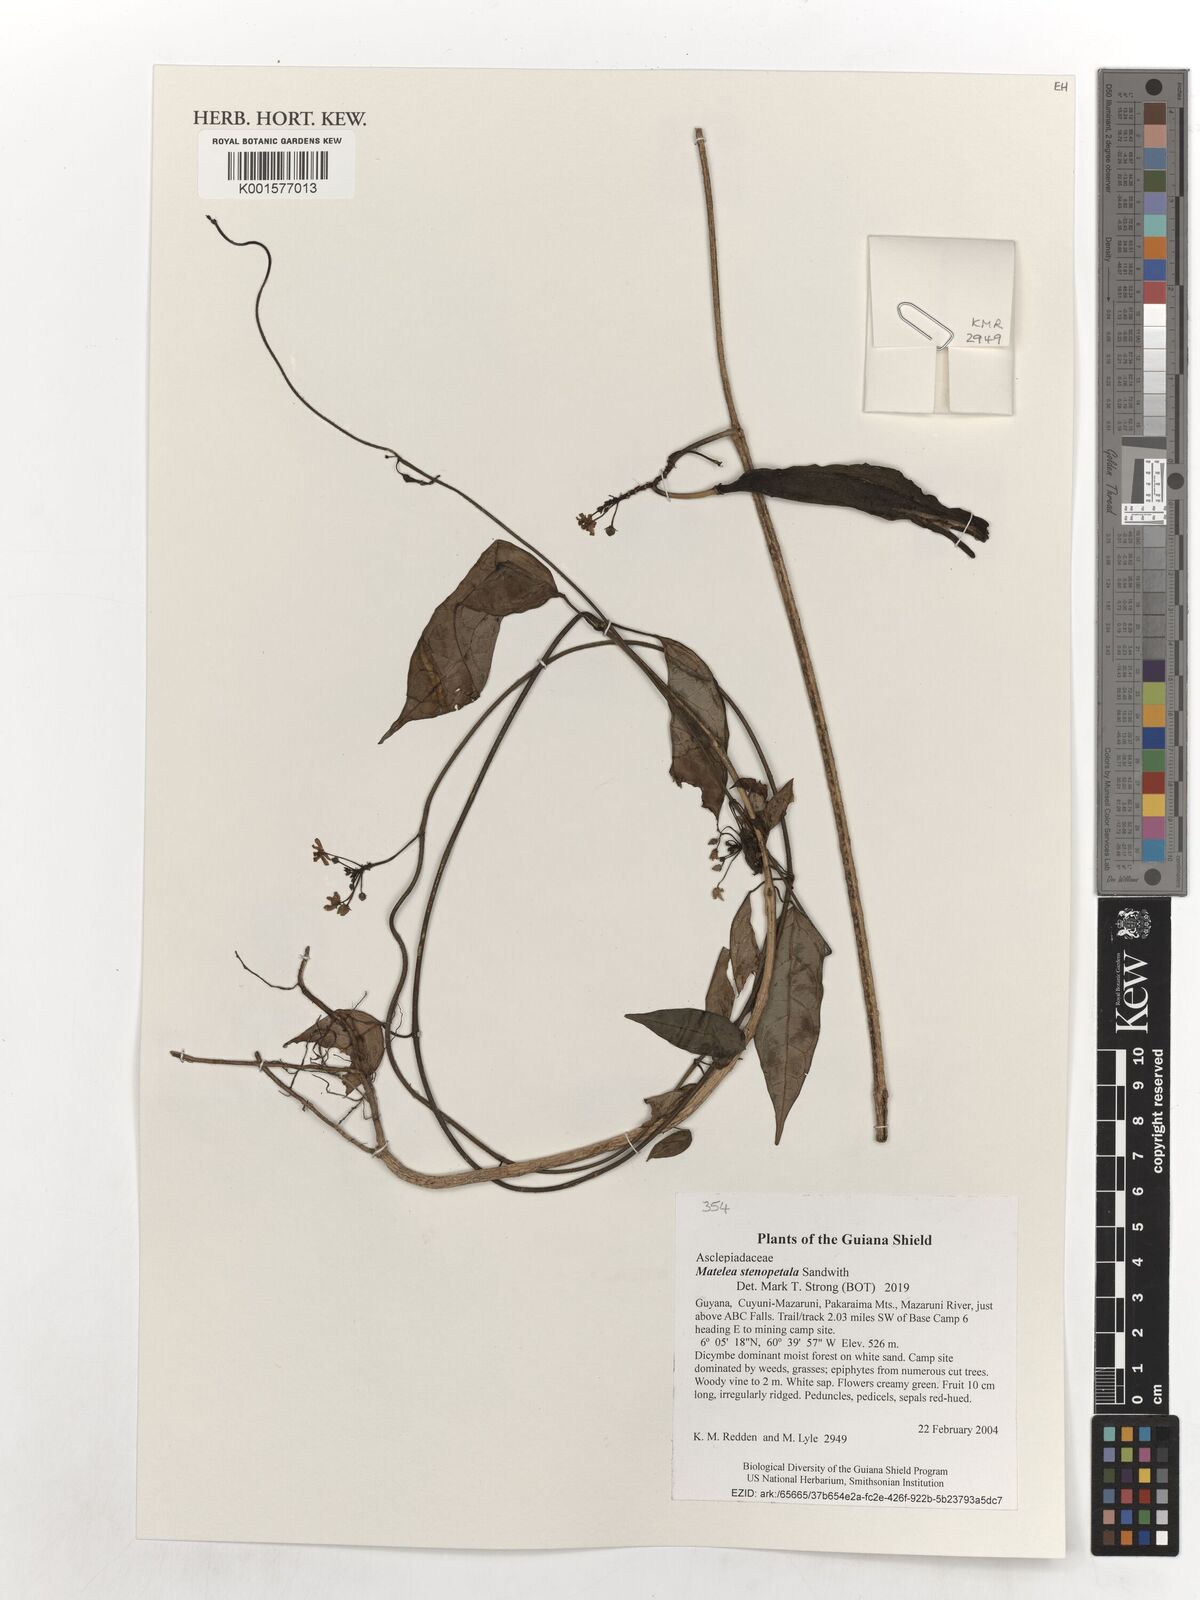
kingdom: Plantae
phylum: Tracheophyta
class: Magnoliopsida
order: Gentianales
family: Apocynaceae
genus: Matelea
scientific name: Matelea stenopetala
